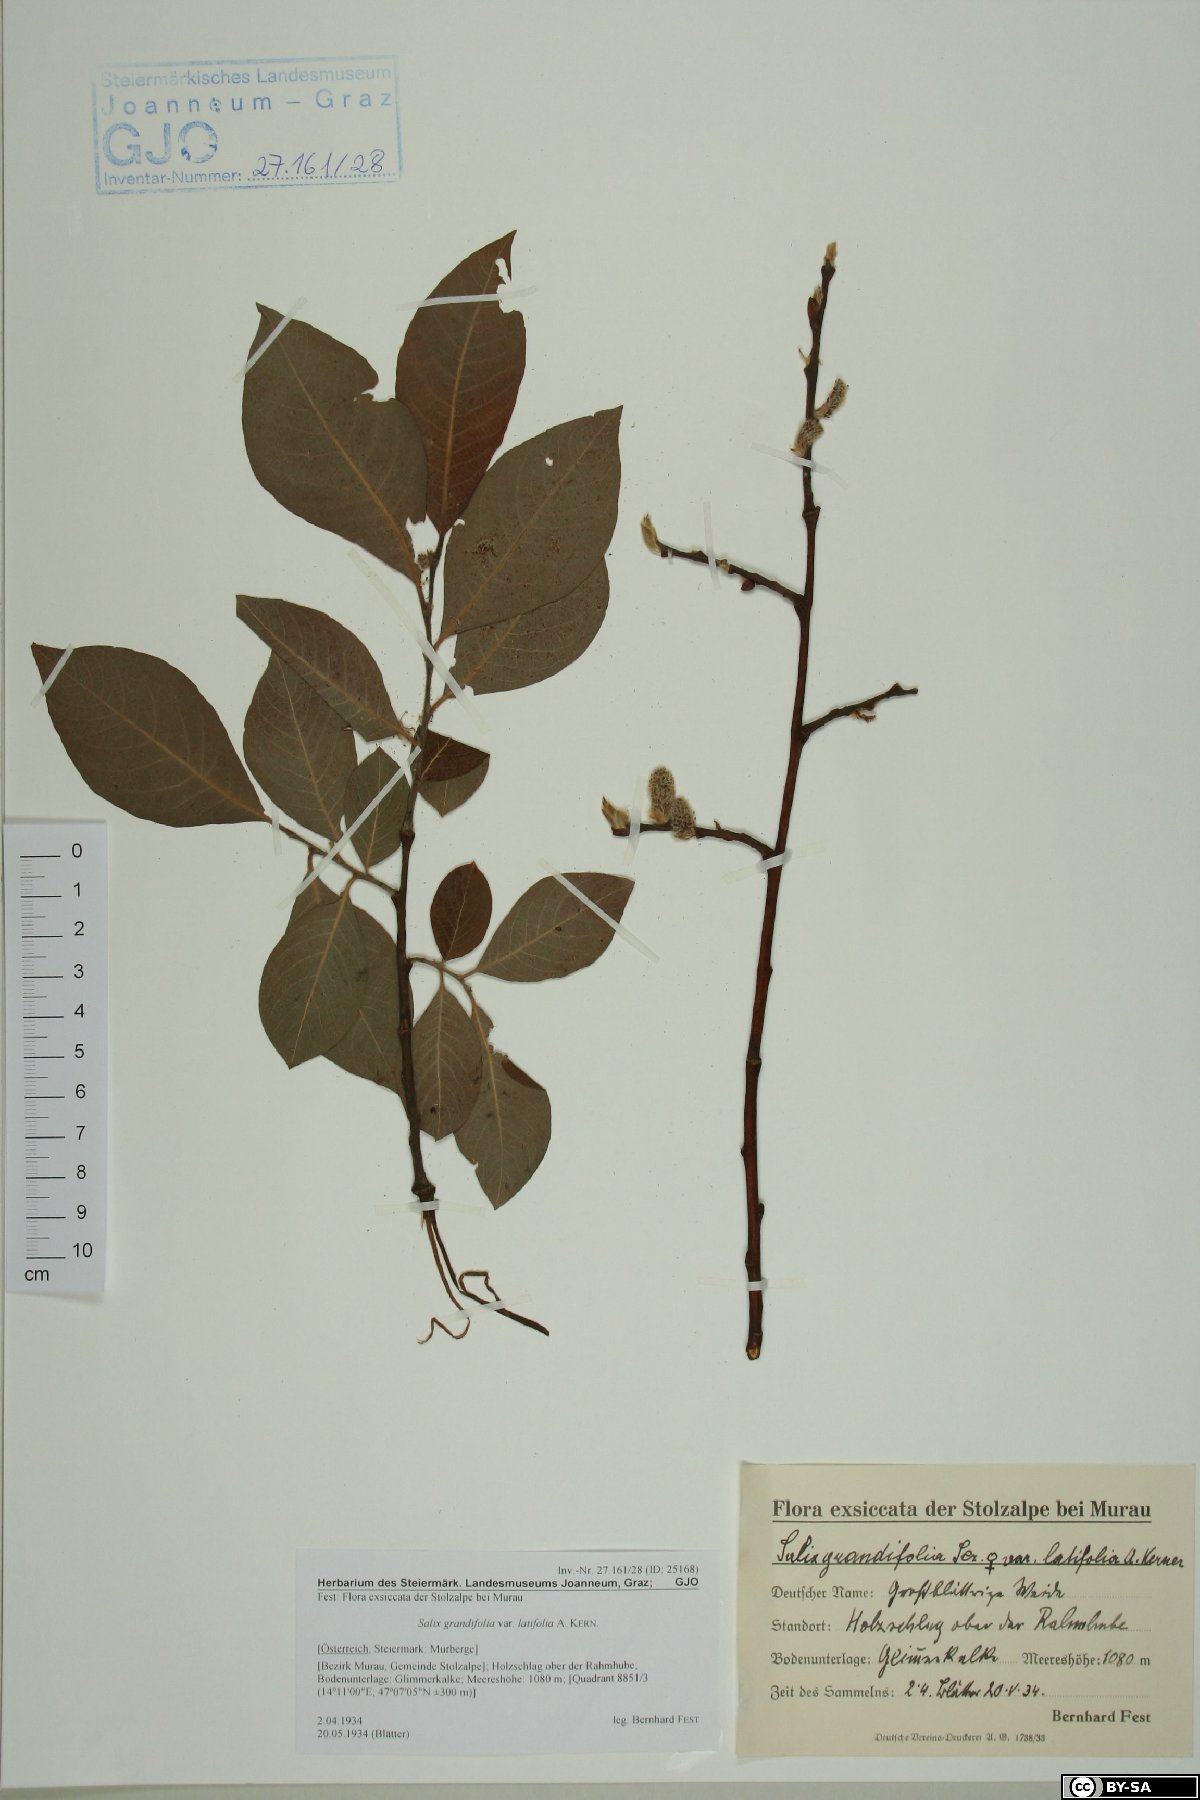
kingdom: Plantae
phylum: Tracheophyta
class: Magnoliopsida
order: Malpighiales
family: Salicaceae
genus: Salix
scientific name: Salix appendiculata
